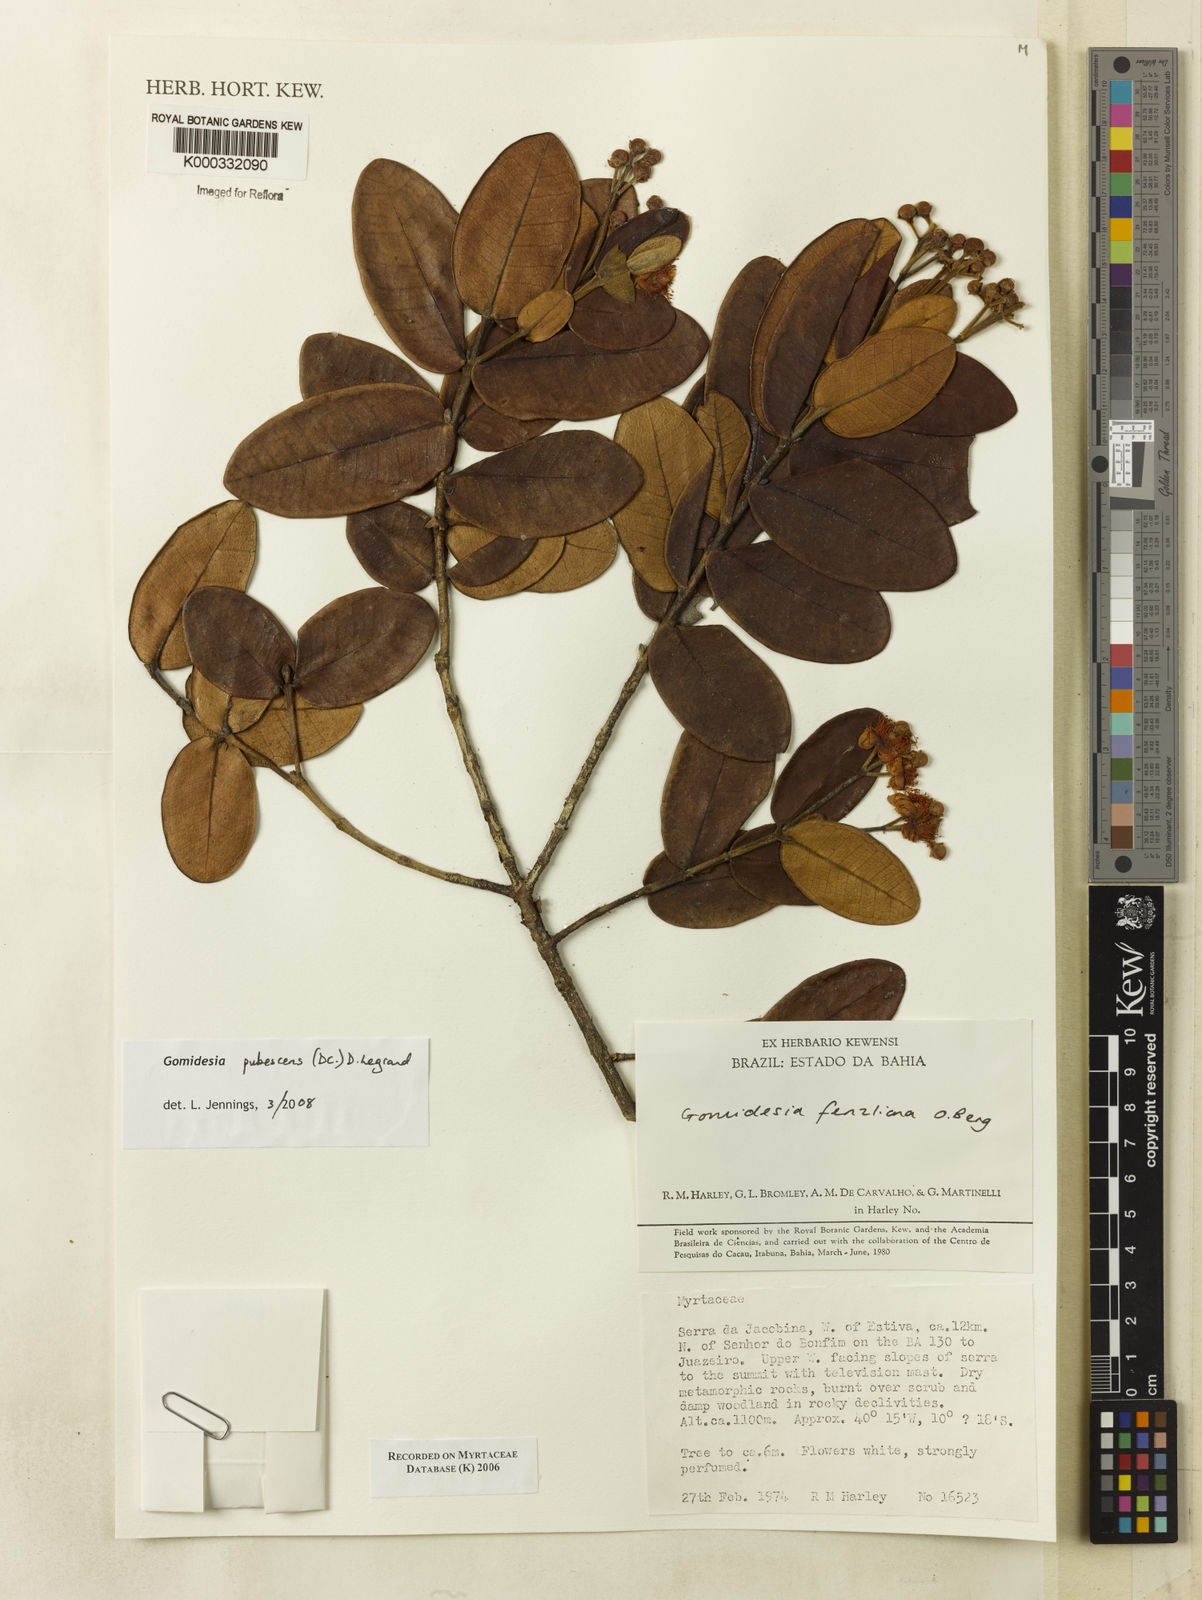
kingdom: Plantae
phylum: Tracheophyta
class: Magnoliopsida
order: Myrtales
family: Myrtaceae
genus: Myrcia
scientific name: Myrcia ilheosensis
